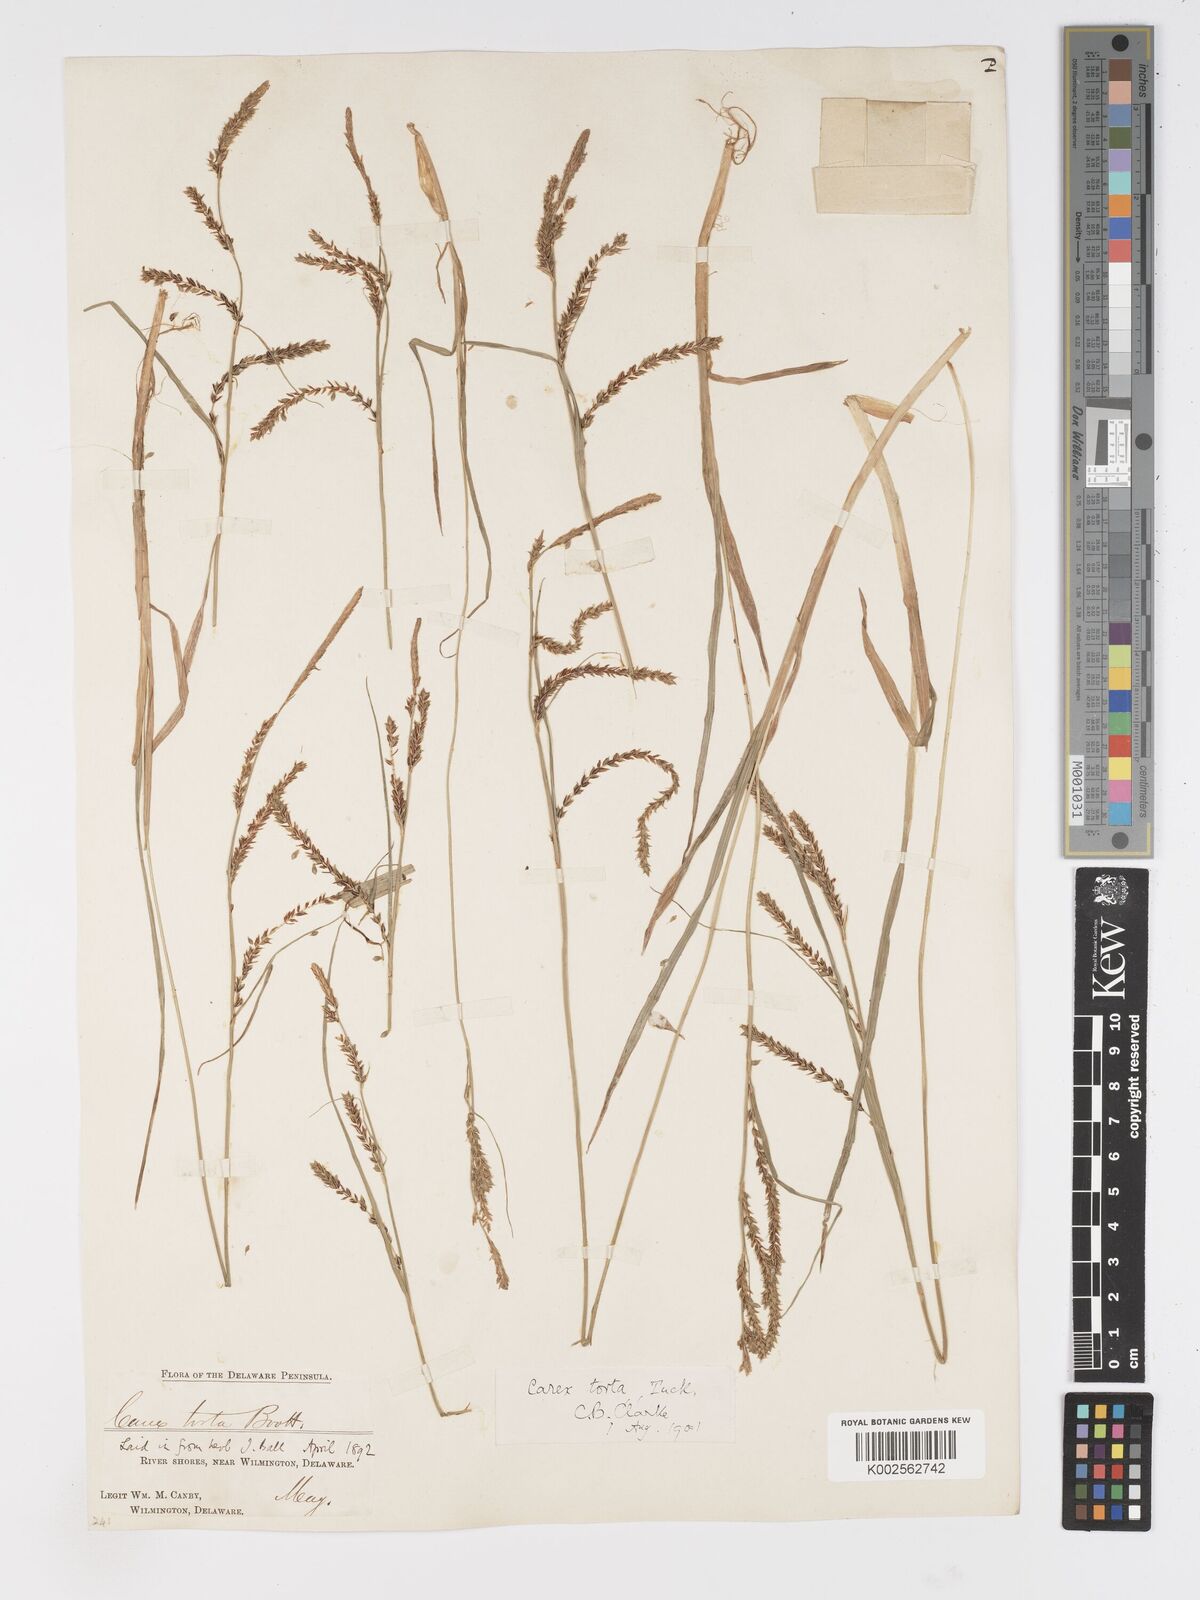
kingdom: Plantae
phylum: Tracheophyta
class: Liliopsida
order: Poales
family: Cyperaceae
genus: Carex
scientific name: Carex torta
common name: Twisted sedge
